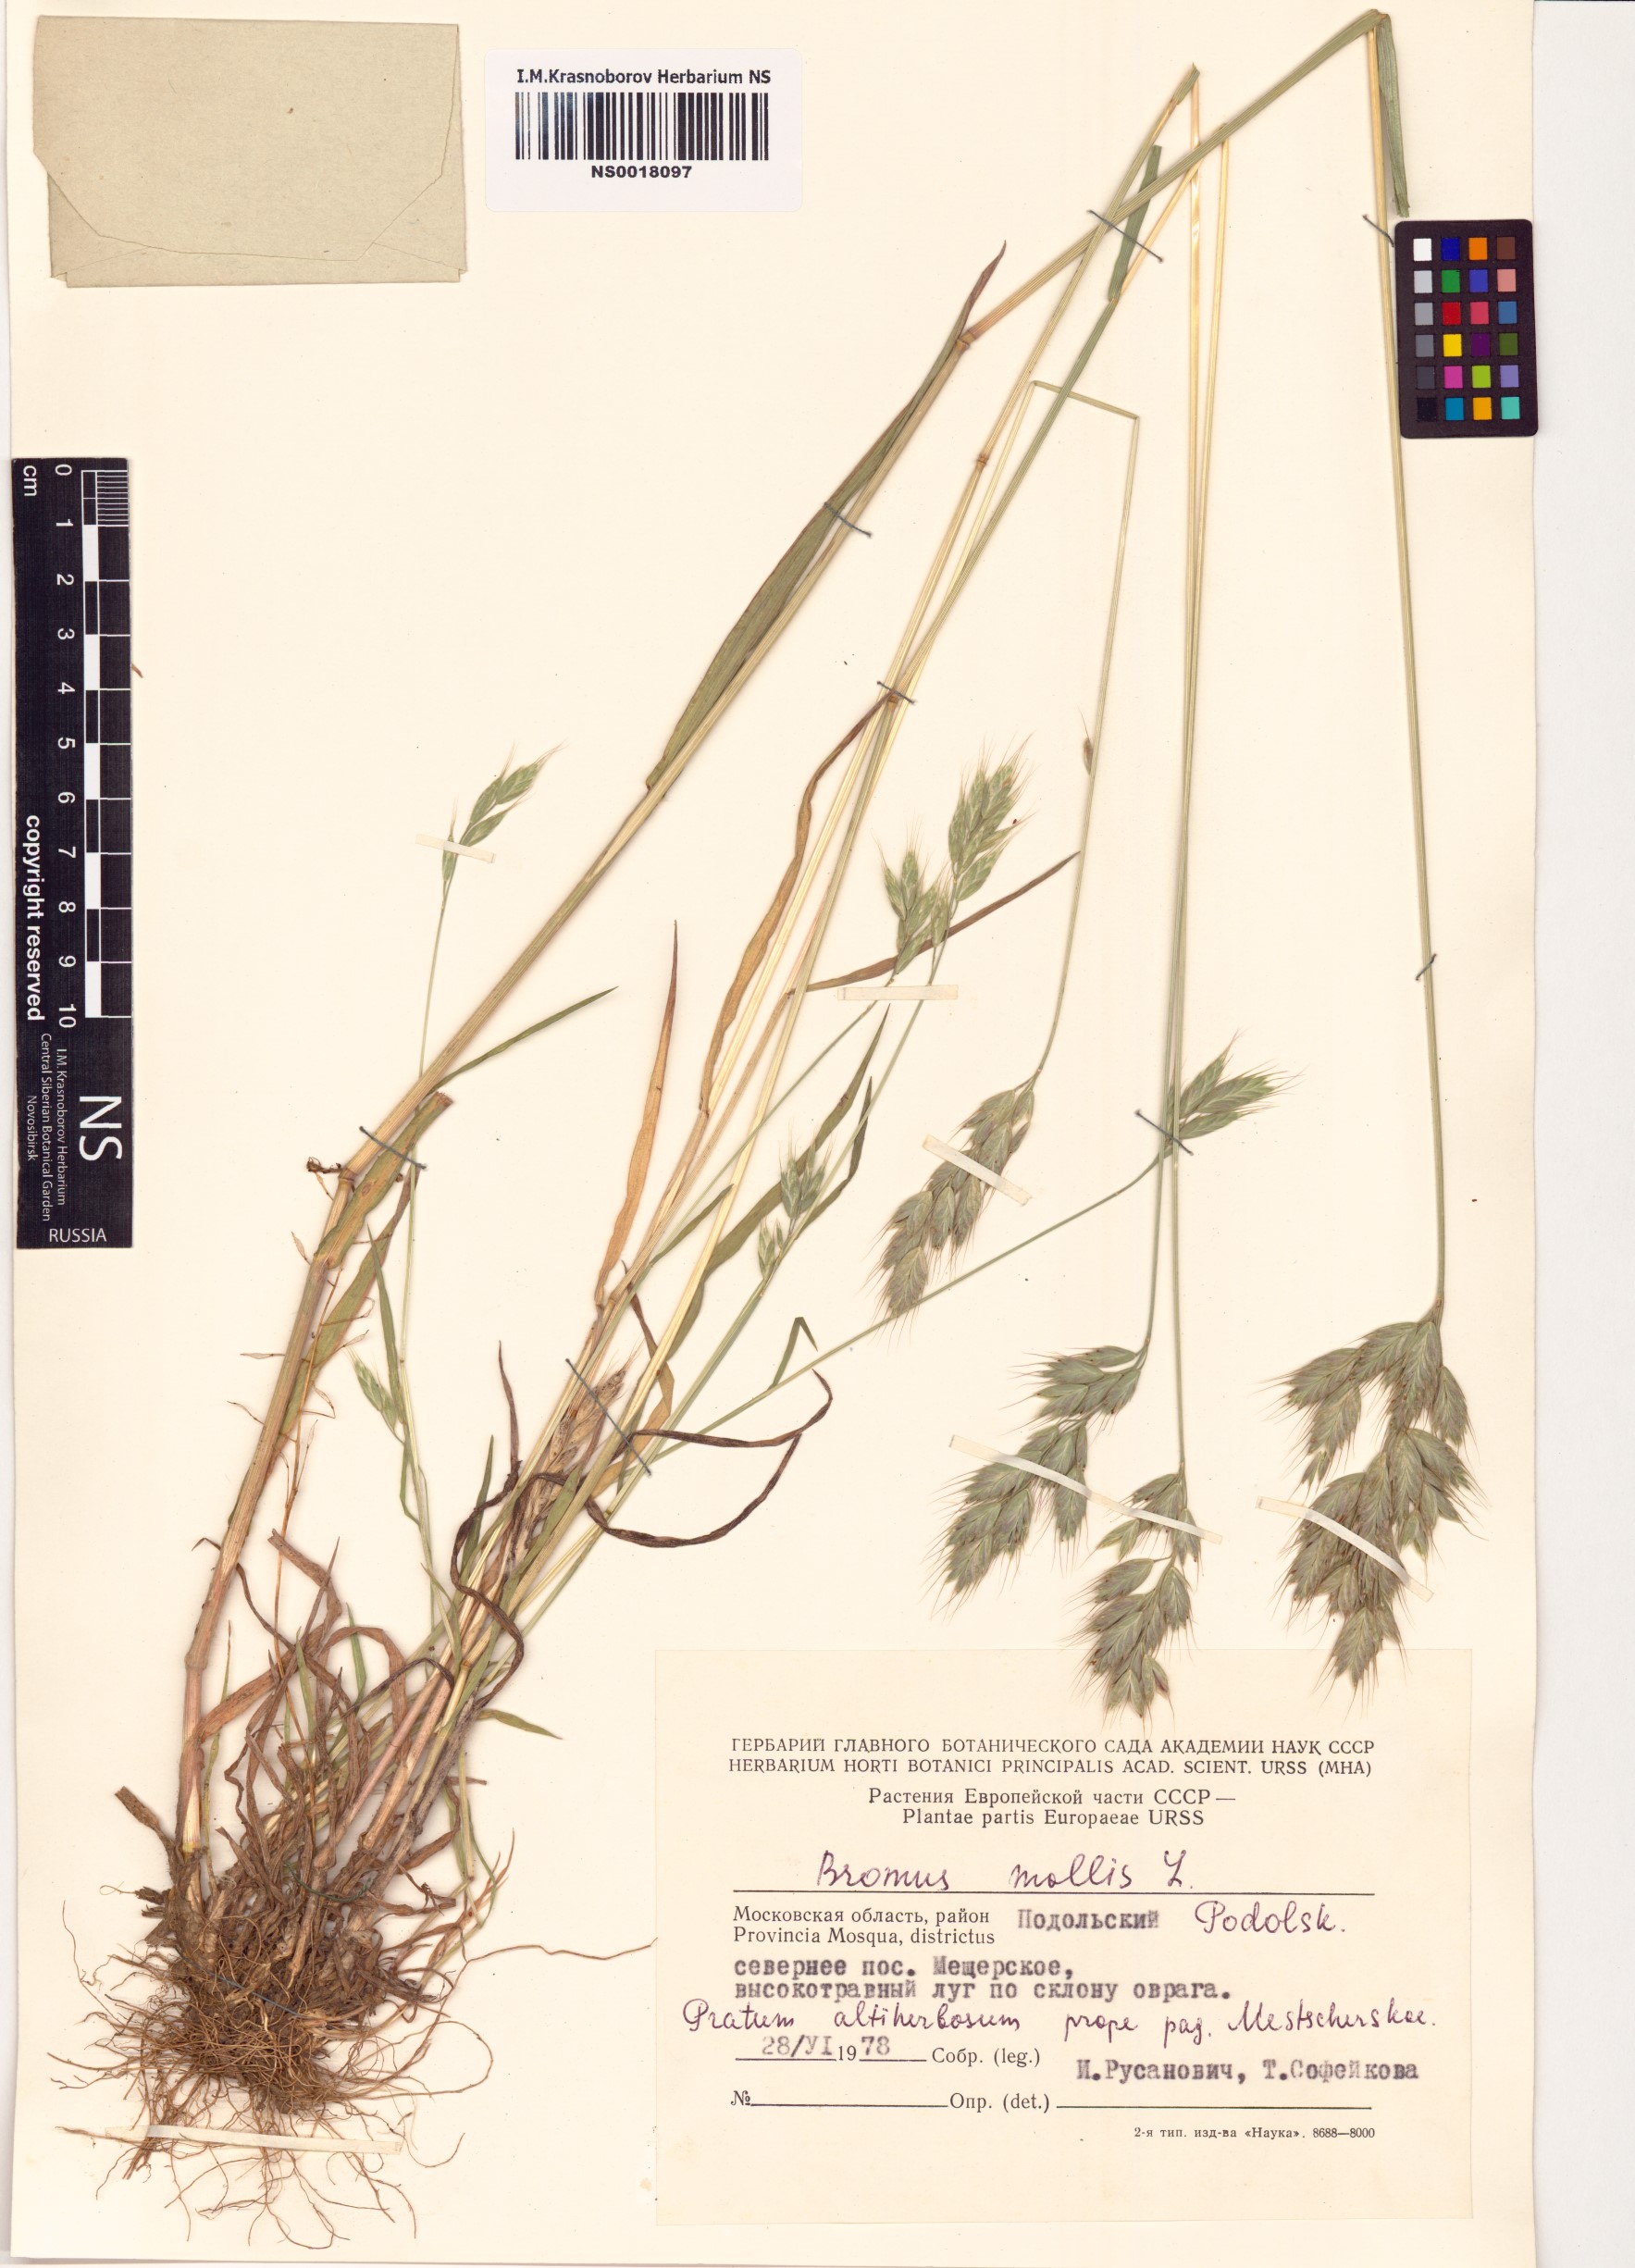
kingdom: Plantae
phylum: Tracheophyta
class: Liliopsida
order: Poales
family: Poaceae
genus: Bromus
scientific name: Bromus hordeaceus
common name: Soft brome
